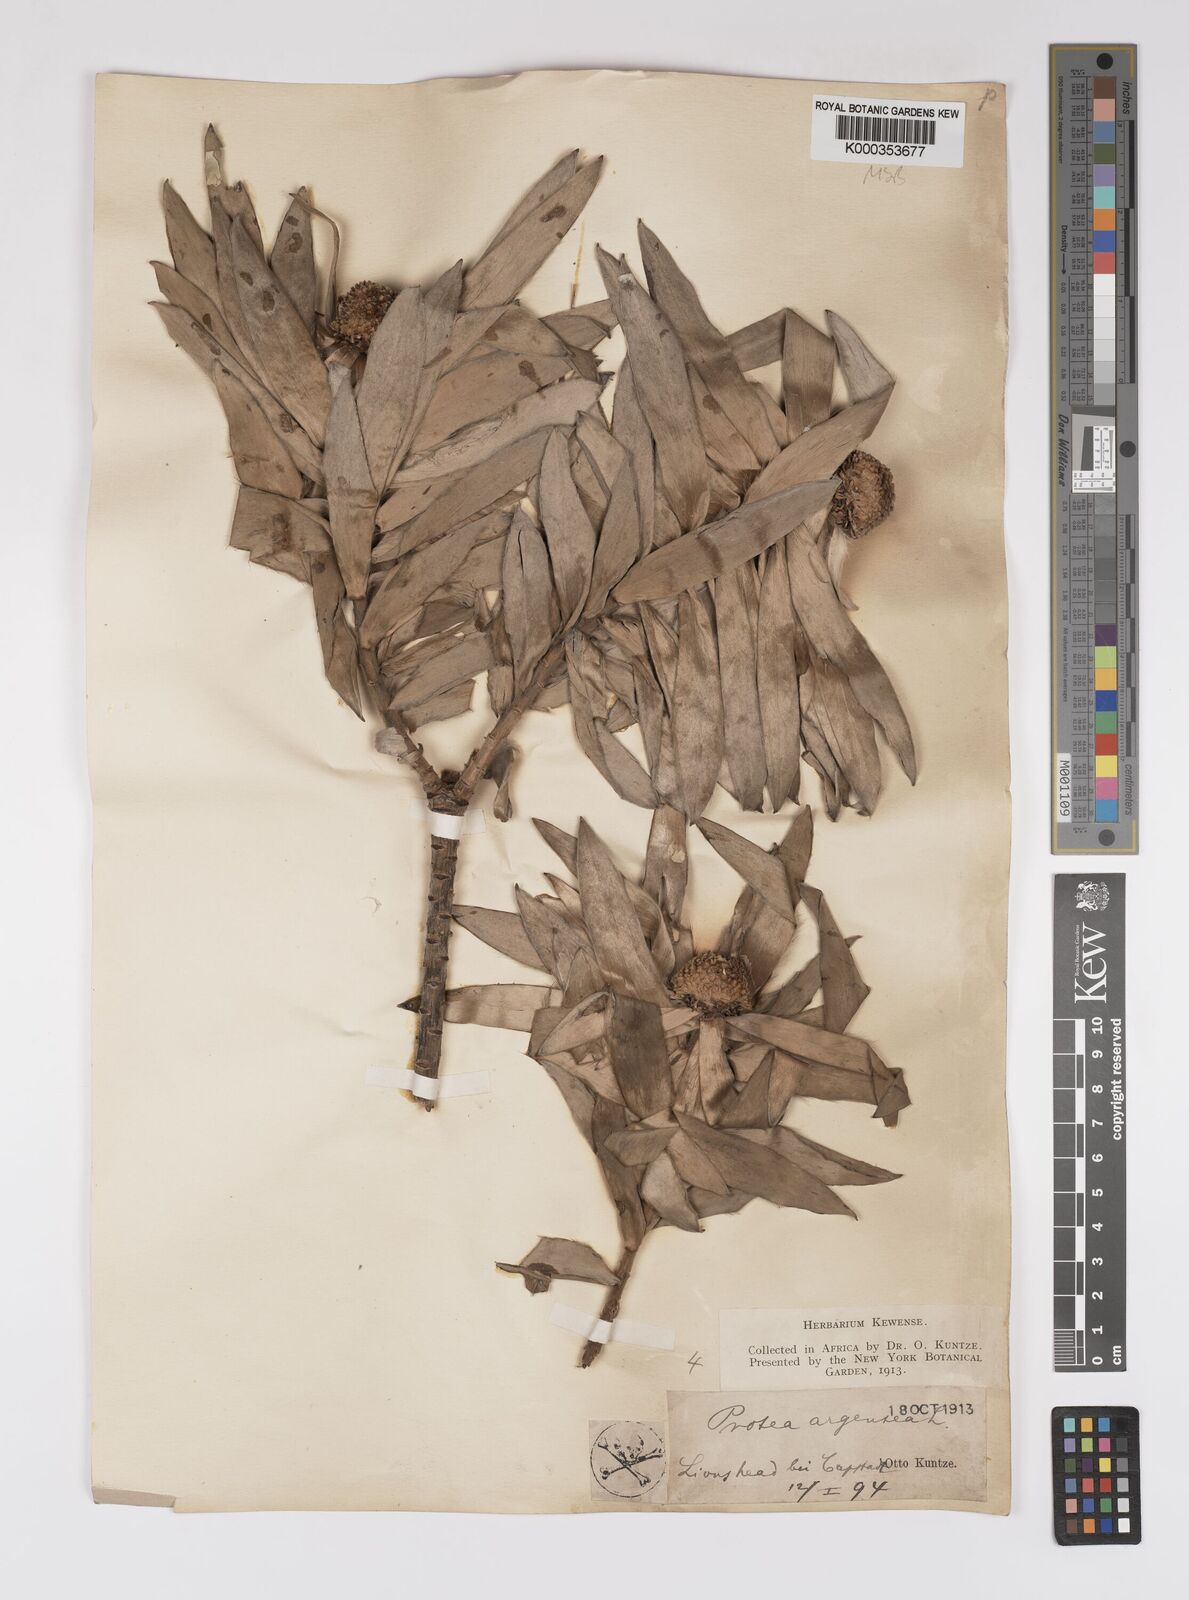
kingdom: Plantae
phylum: Tracheophyta
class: Magnoliopsida
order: Proteales
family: Proteaceae
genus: Leucadendron
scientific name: Leucadendron argenteum
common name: Cape silver tree
